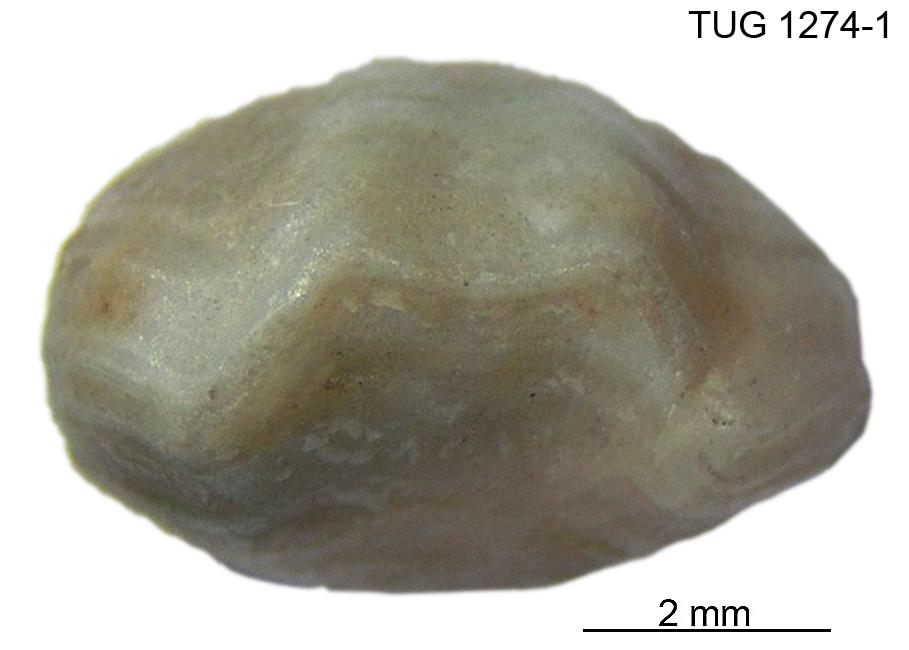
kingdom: Animalia
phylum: Brachiopoda
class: Rhynchonellata
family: Camerellidae
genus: Stenocamara
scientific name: Stenocamara biohermica
